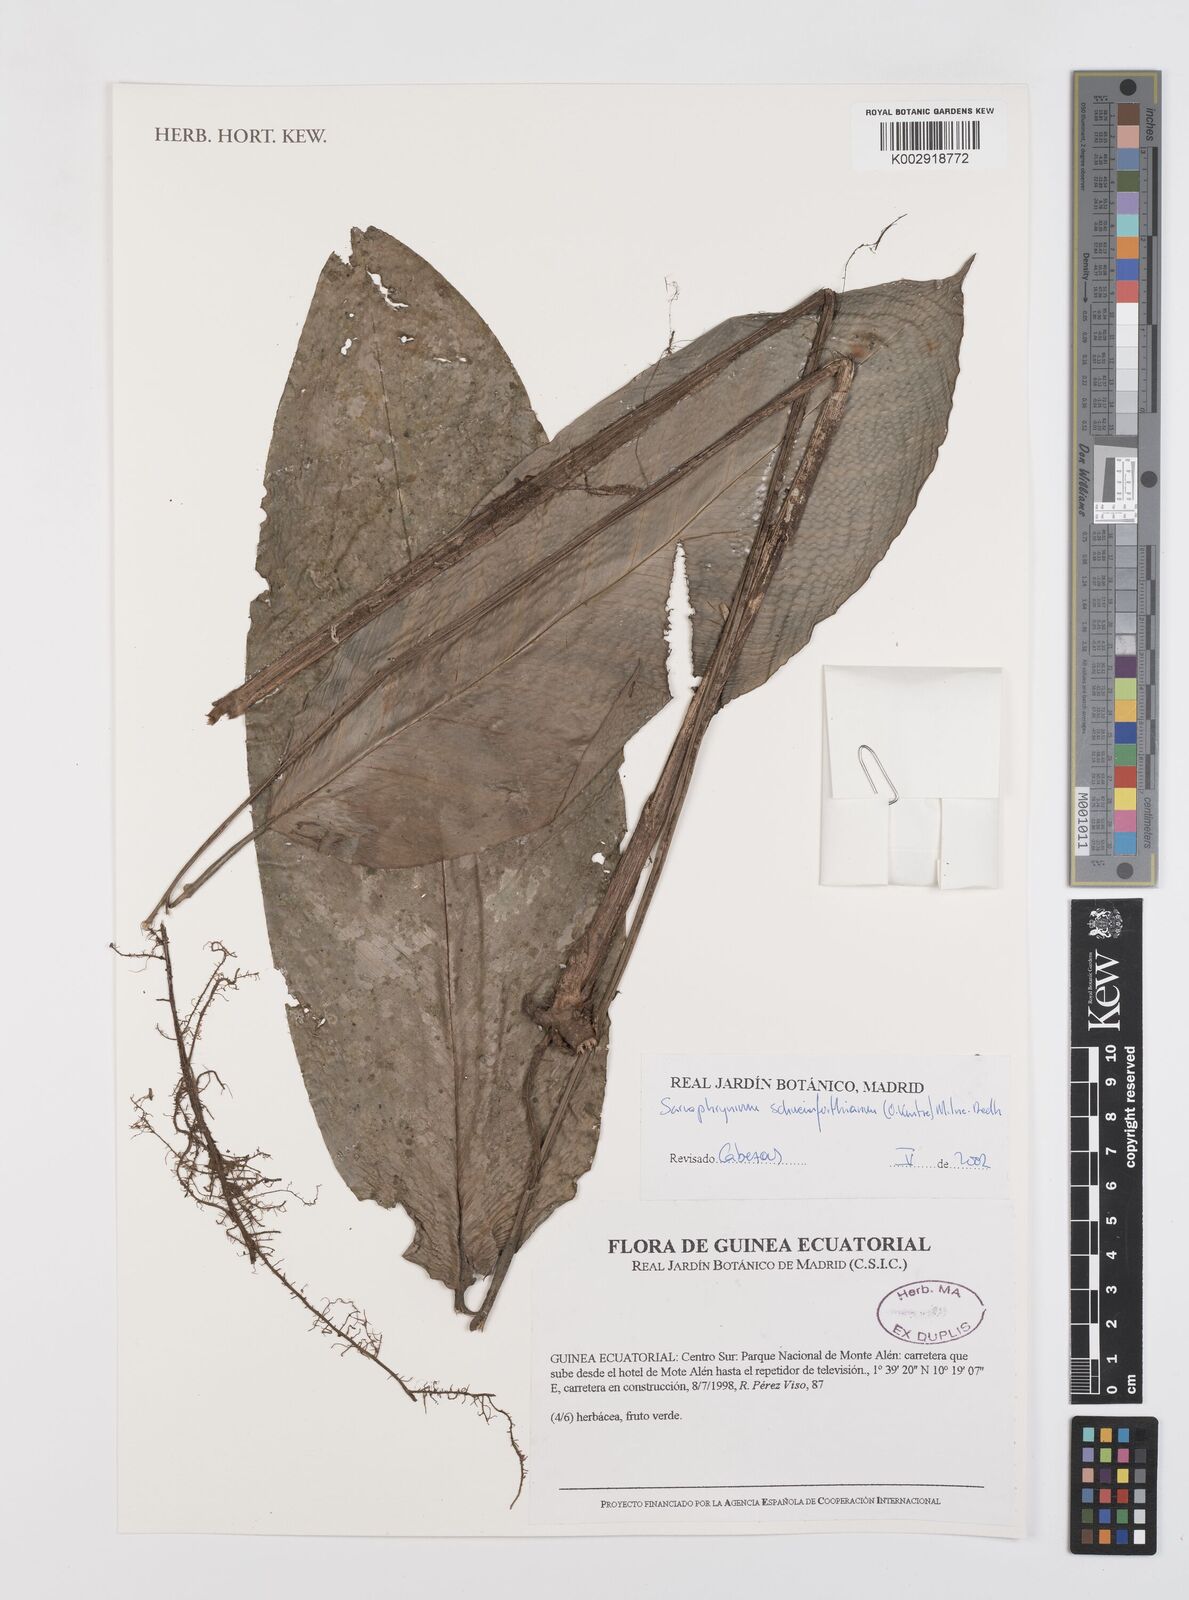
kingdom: Plantae
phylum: Tracheophyta
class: Liliopsida
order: Zingiberales
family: Marantaceae
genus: Sarcophrynium
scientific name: Sarcophrynium schweinfurthianum
